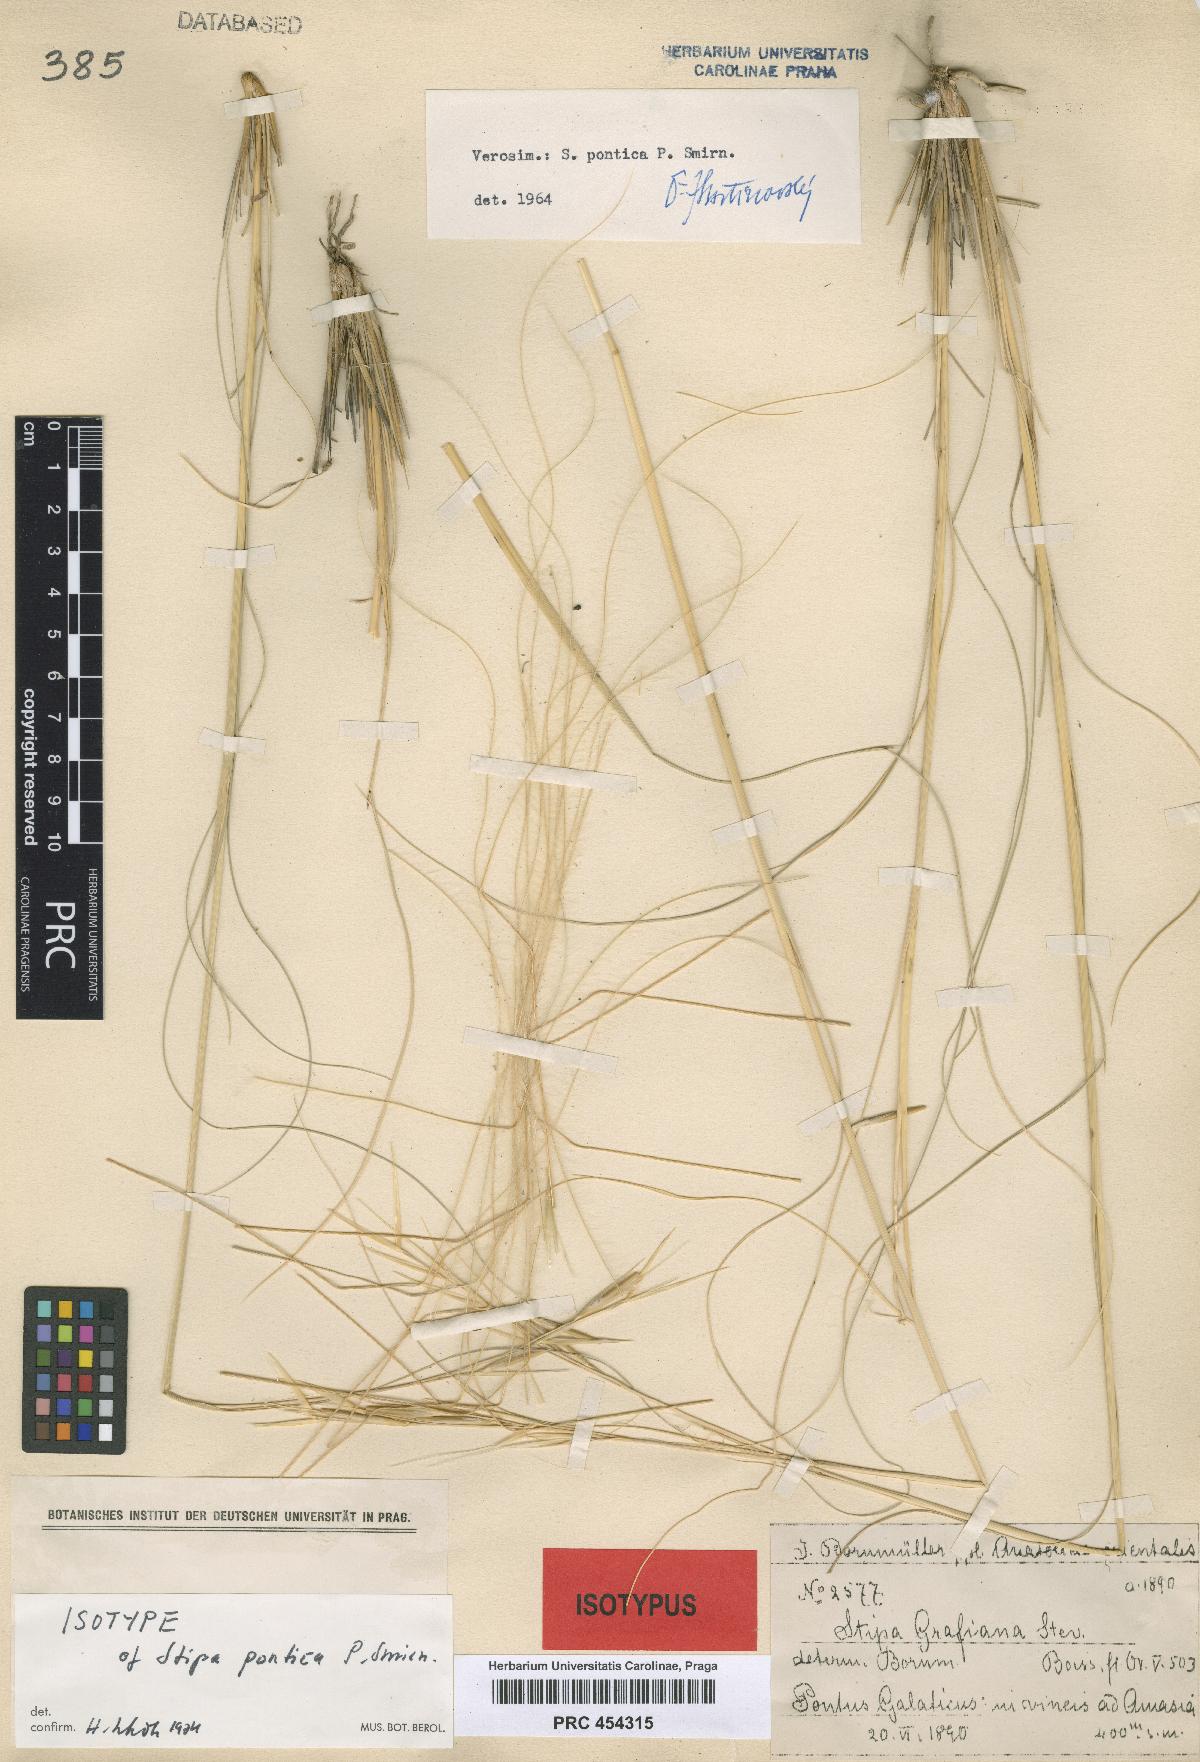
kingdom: Plantae
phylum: Tracheophyta
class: Liliopsida
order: Poales
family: Poaceae
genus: Stipa
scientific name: Stipa pontica
